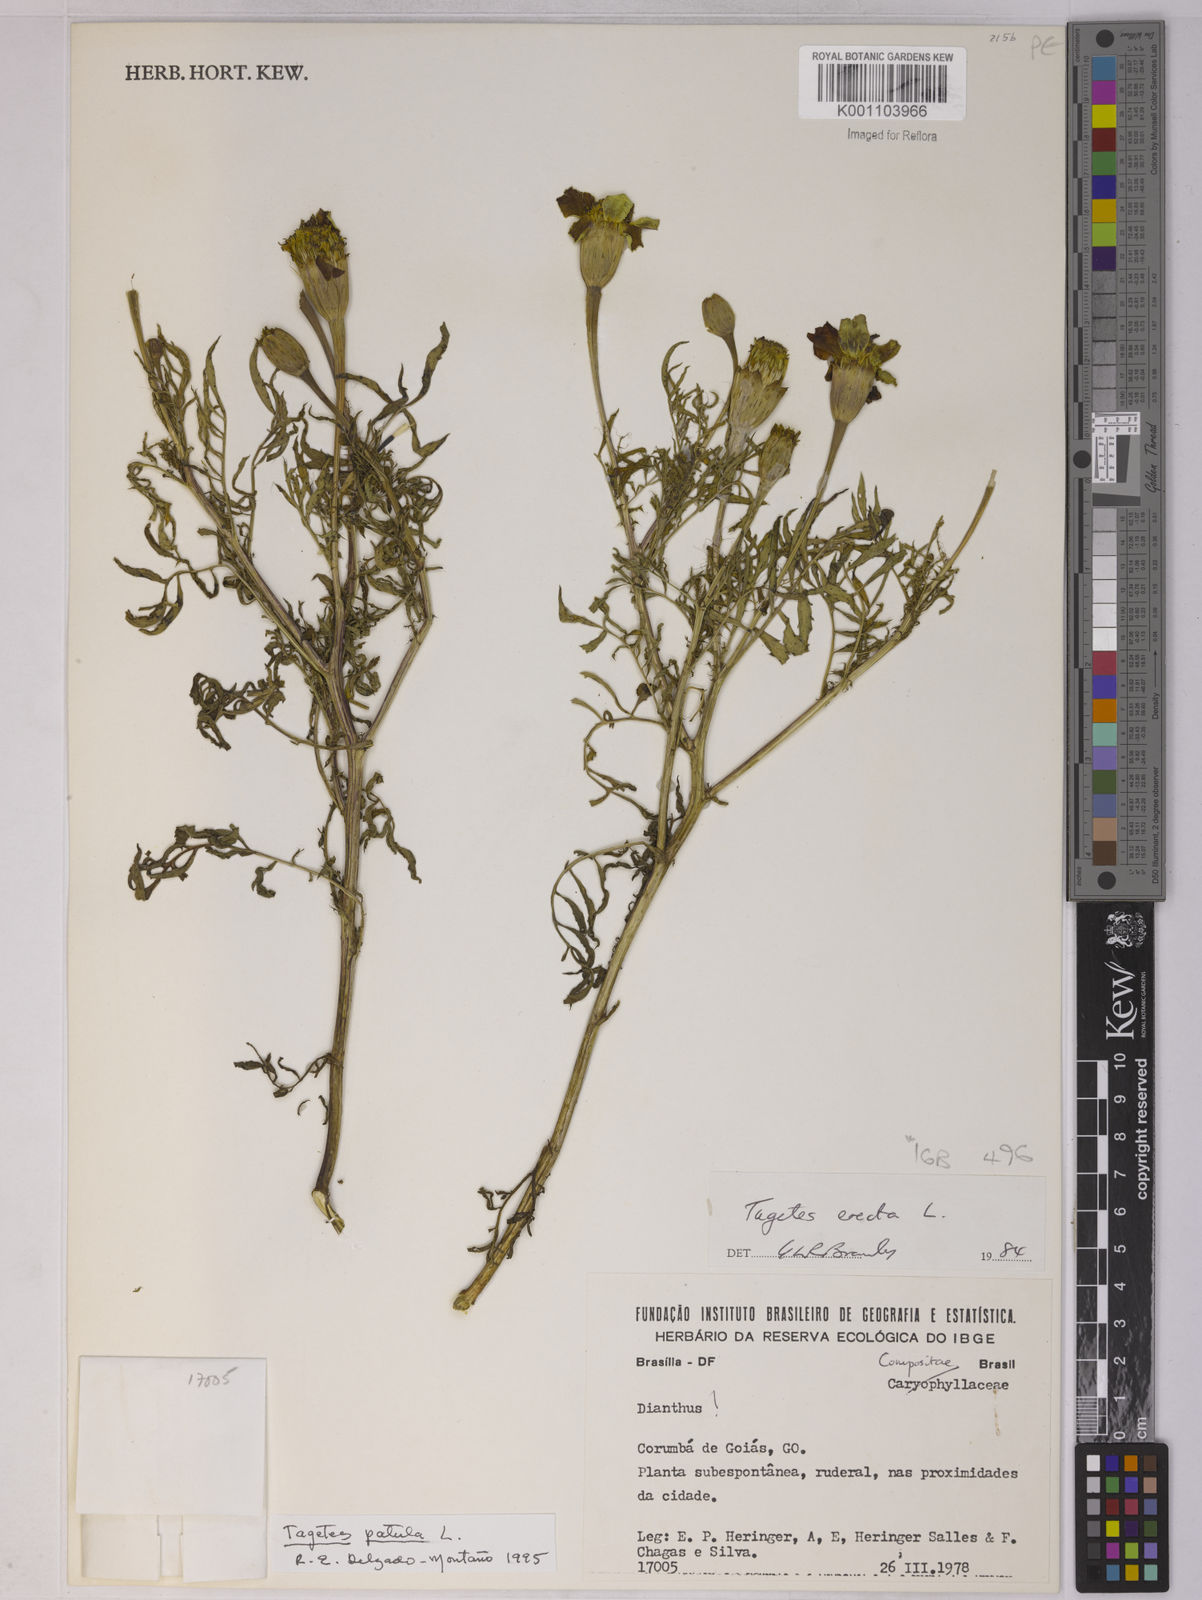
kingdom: Plantae
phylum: Tracheophyta
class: Magnoliopsida
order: Asterales
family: Asteraceae
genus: Tagetes
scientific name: Tagetes erecta
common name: African marigold
